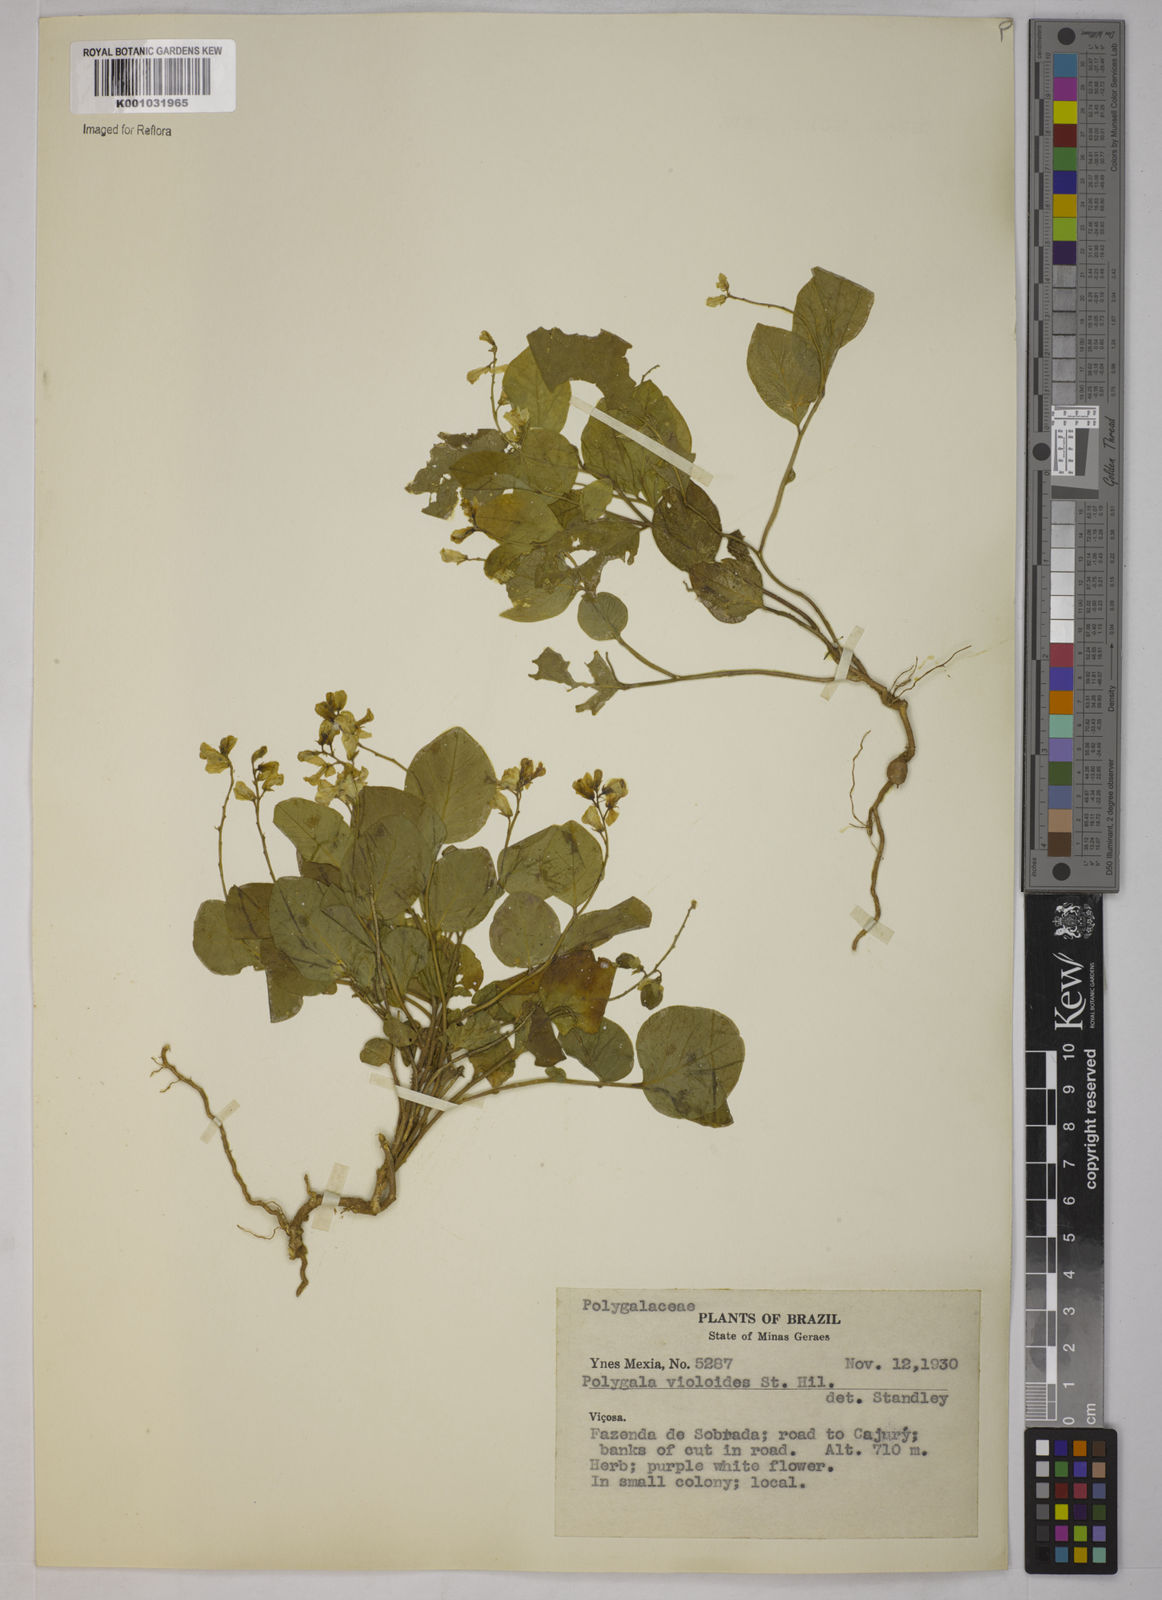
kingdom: Plantae
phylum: Tracheophyta
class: Magnoliopsida
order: Fabales
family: Polygalaceae
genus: Gymnospora
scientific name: Gymnospora violoides
